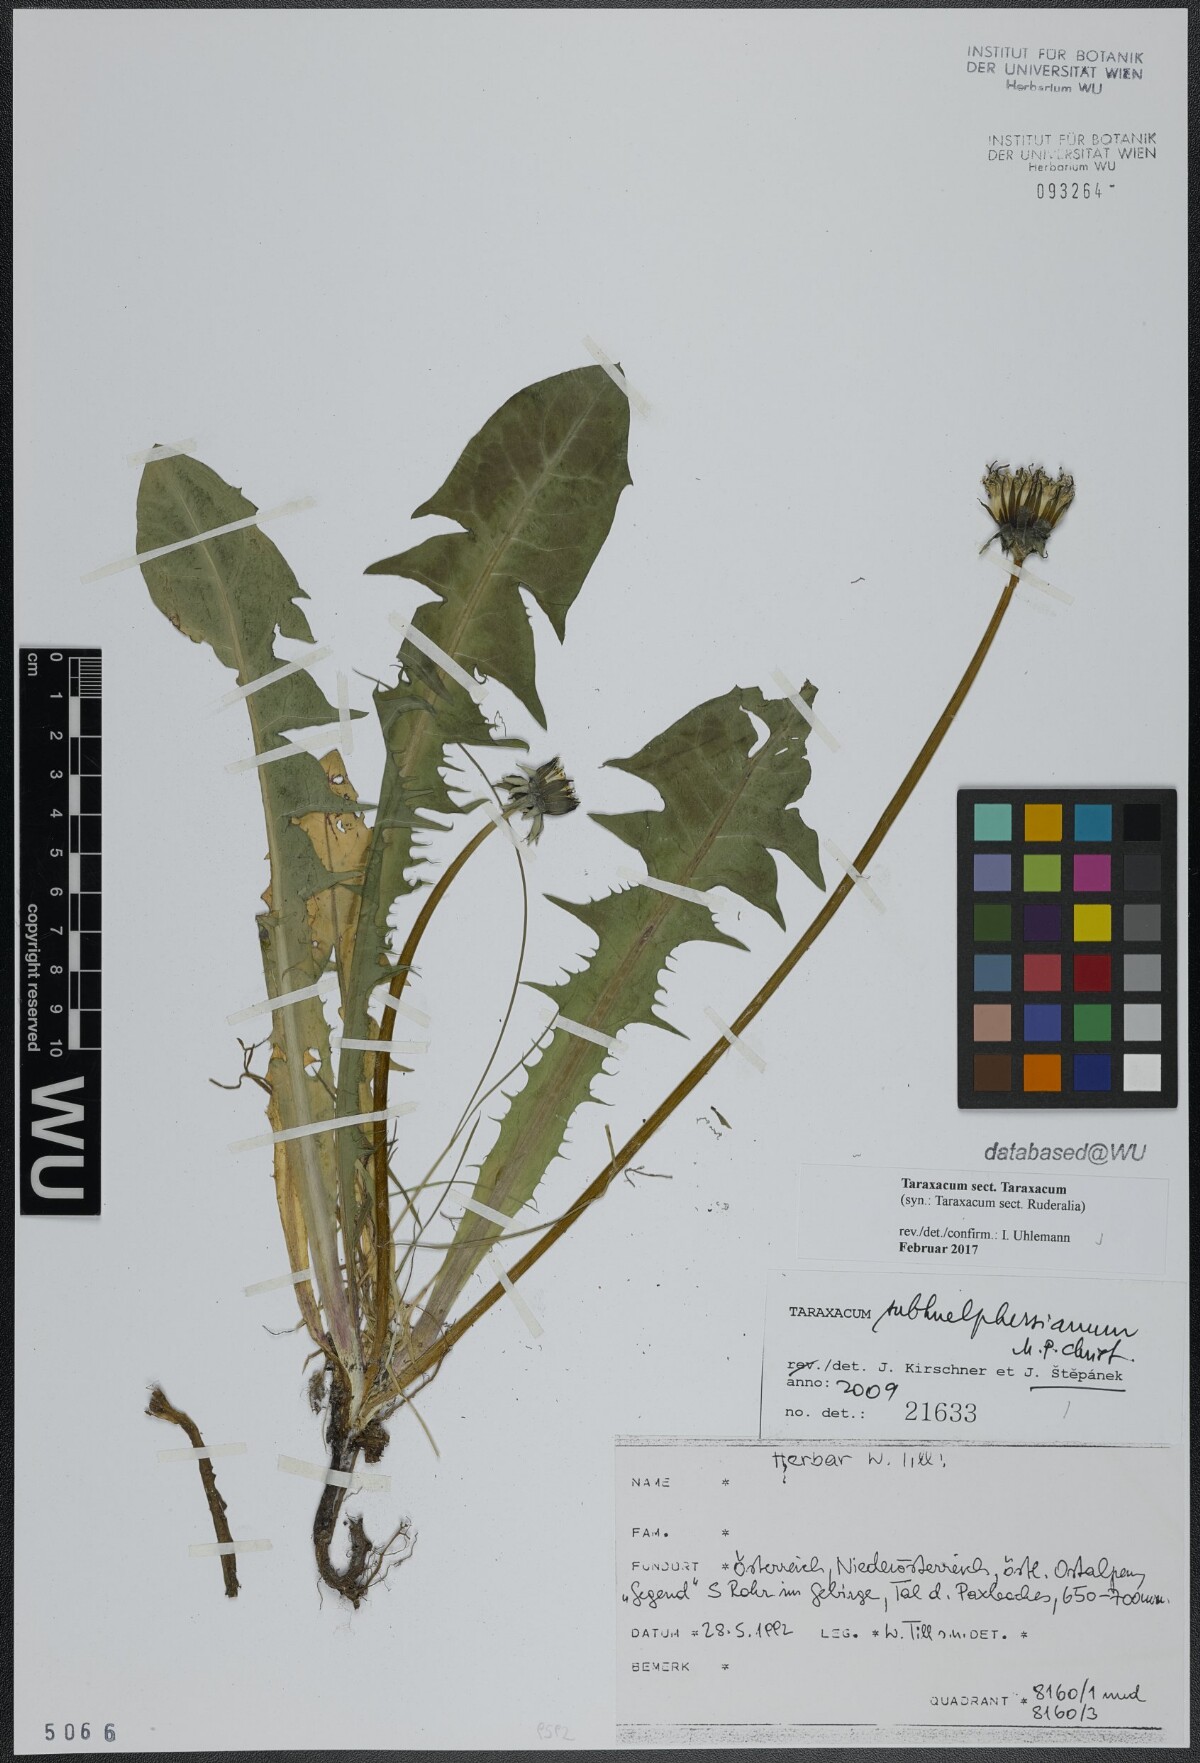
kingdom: Plantae
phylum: Tracheophyta
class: Magnoliopsida
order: Asterales
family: Asteraceae
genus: Taraxacum
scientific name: Taraxacum
